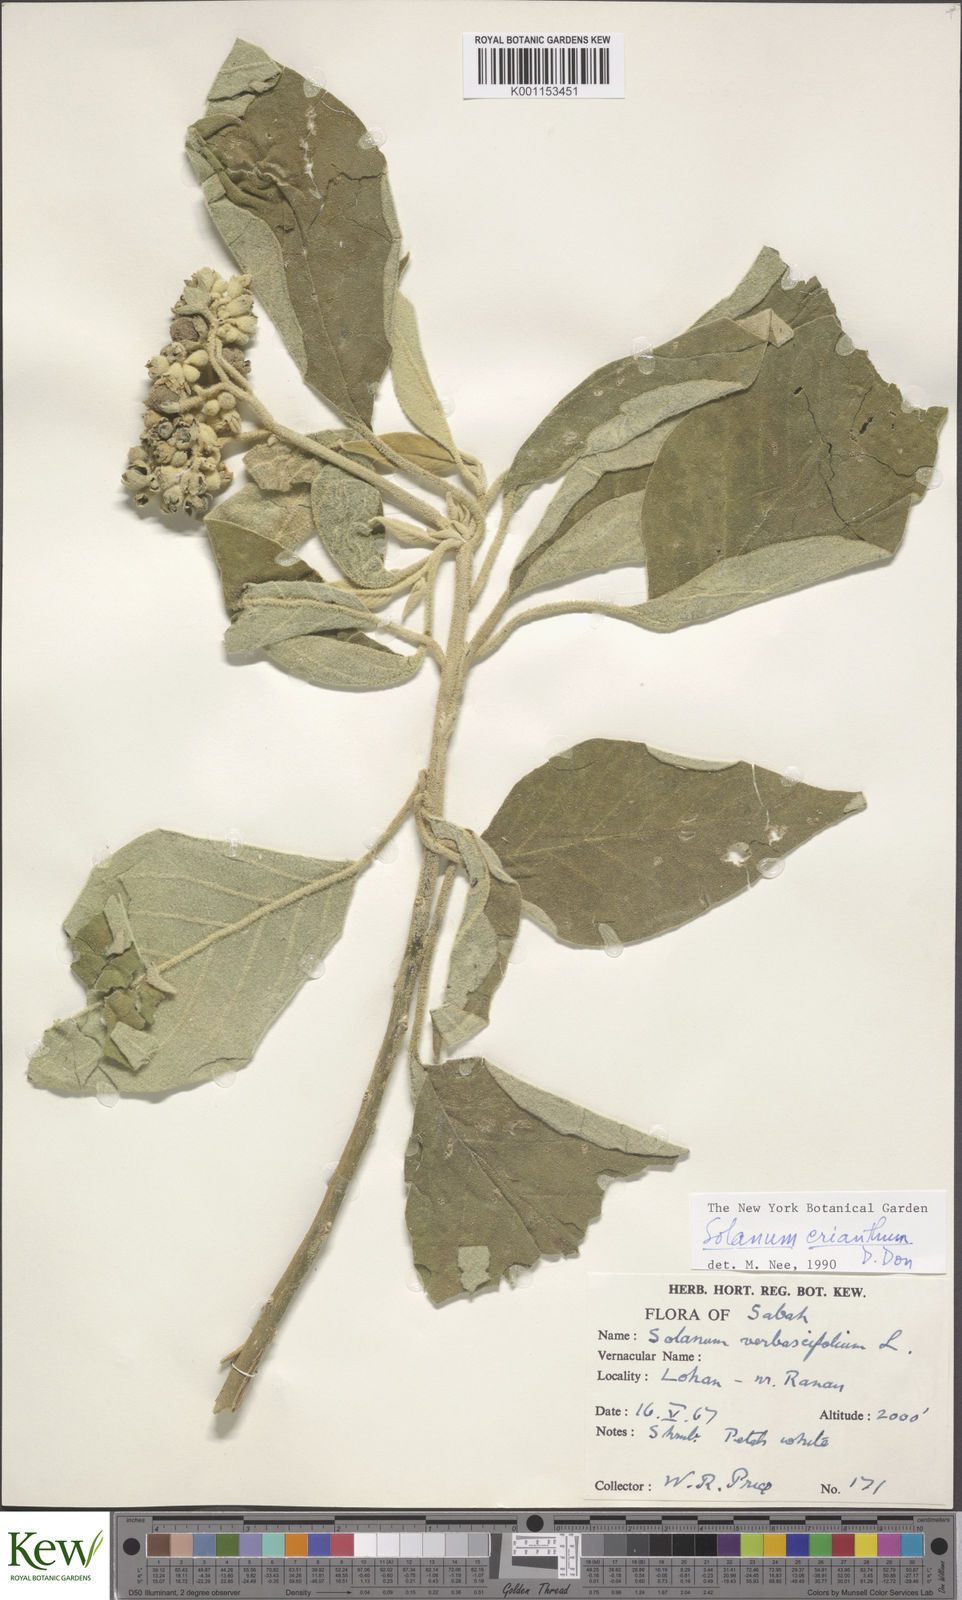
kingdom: Plantae
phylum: Tracheophyta
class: Magnoliopsida
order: Solanales
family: Solanaceae
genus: Solanum
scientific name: Solanum erianthum
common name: Tobacco-tree
